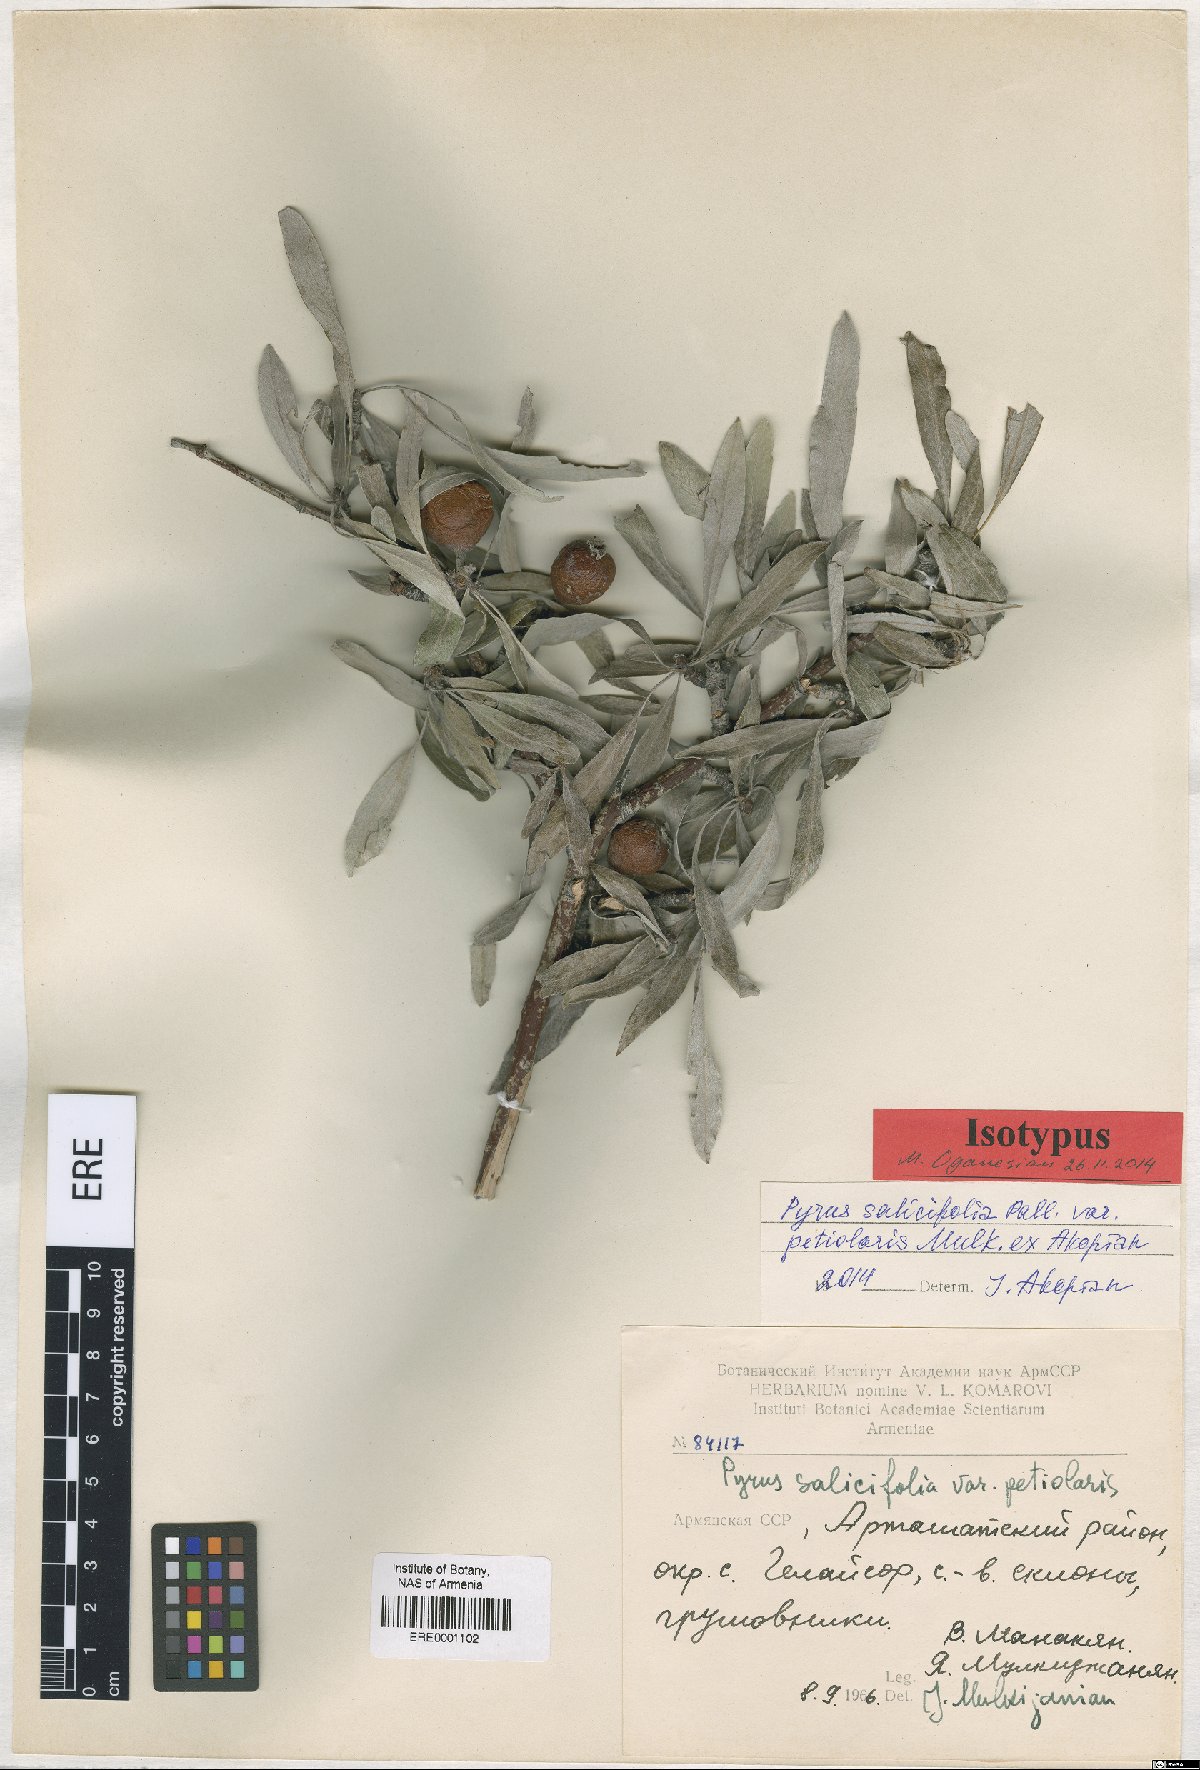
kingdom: Plantae
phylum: Tracheophyta
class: Magnoliopsida
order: Rosales
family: Rosaceae
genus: Pyrus
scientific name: Pyrus salicifolia
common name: Willow-leaved pear
